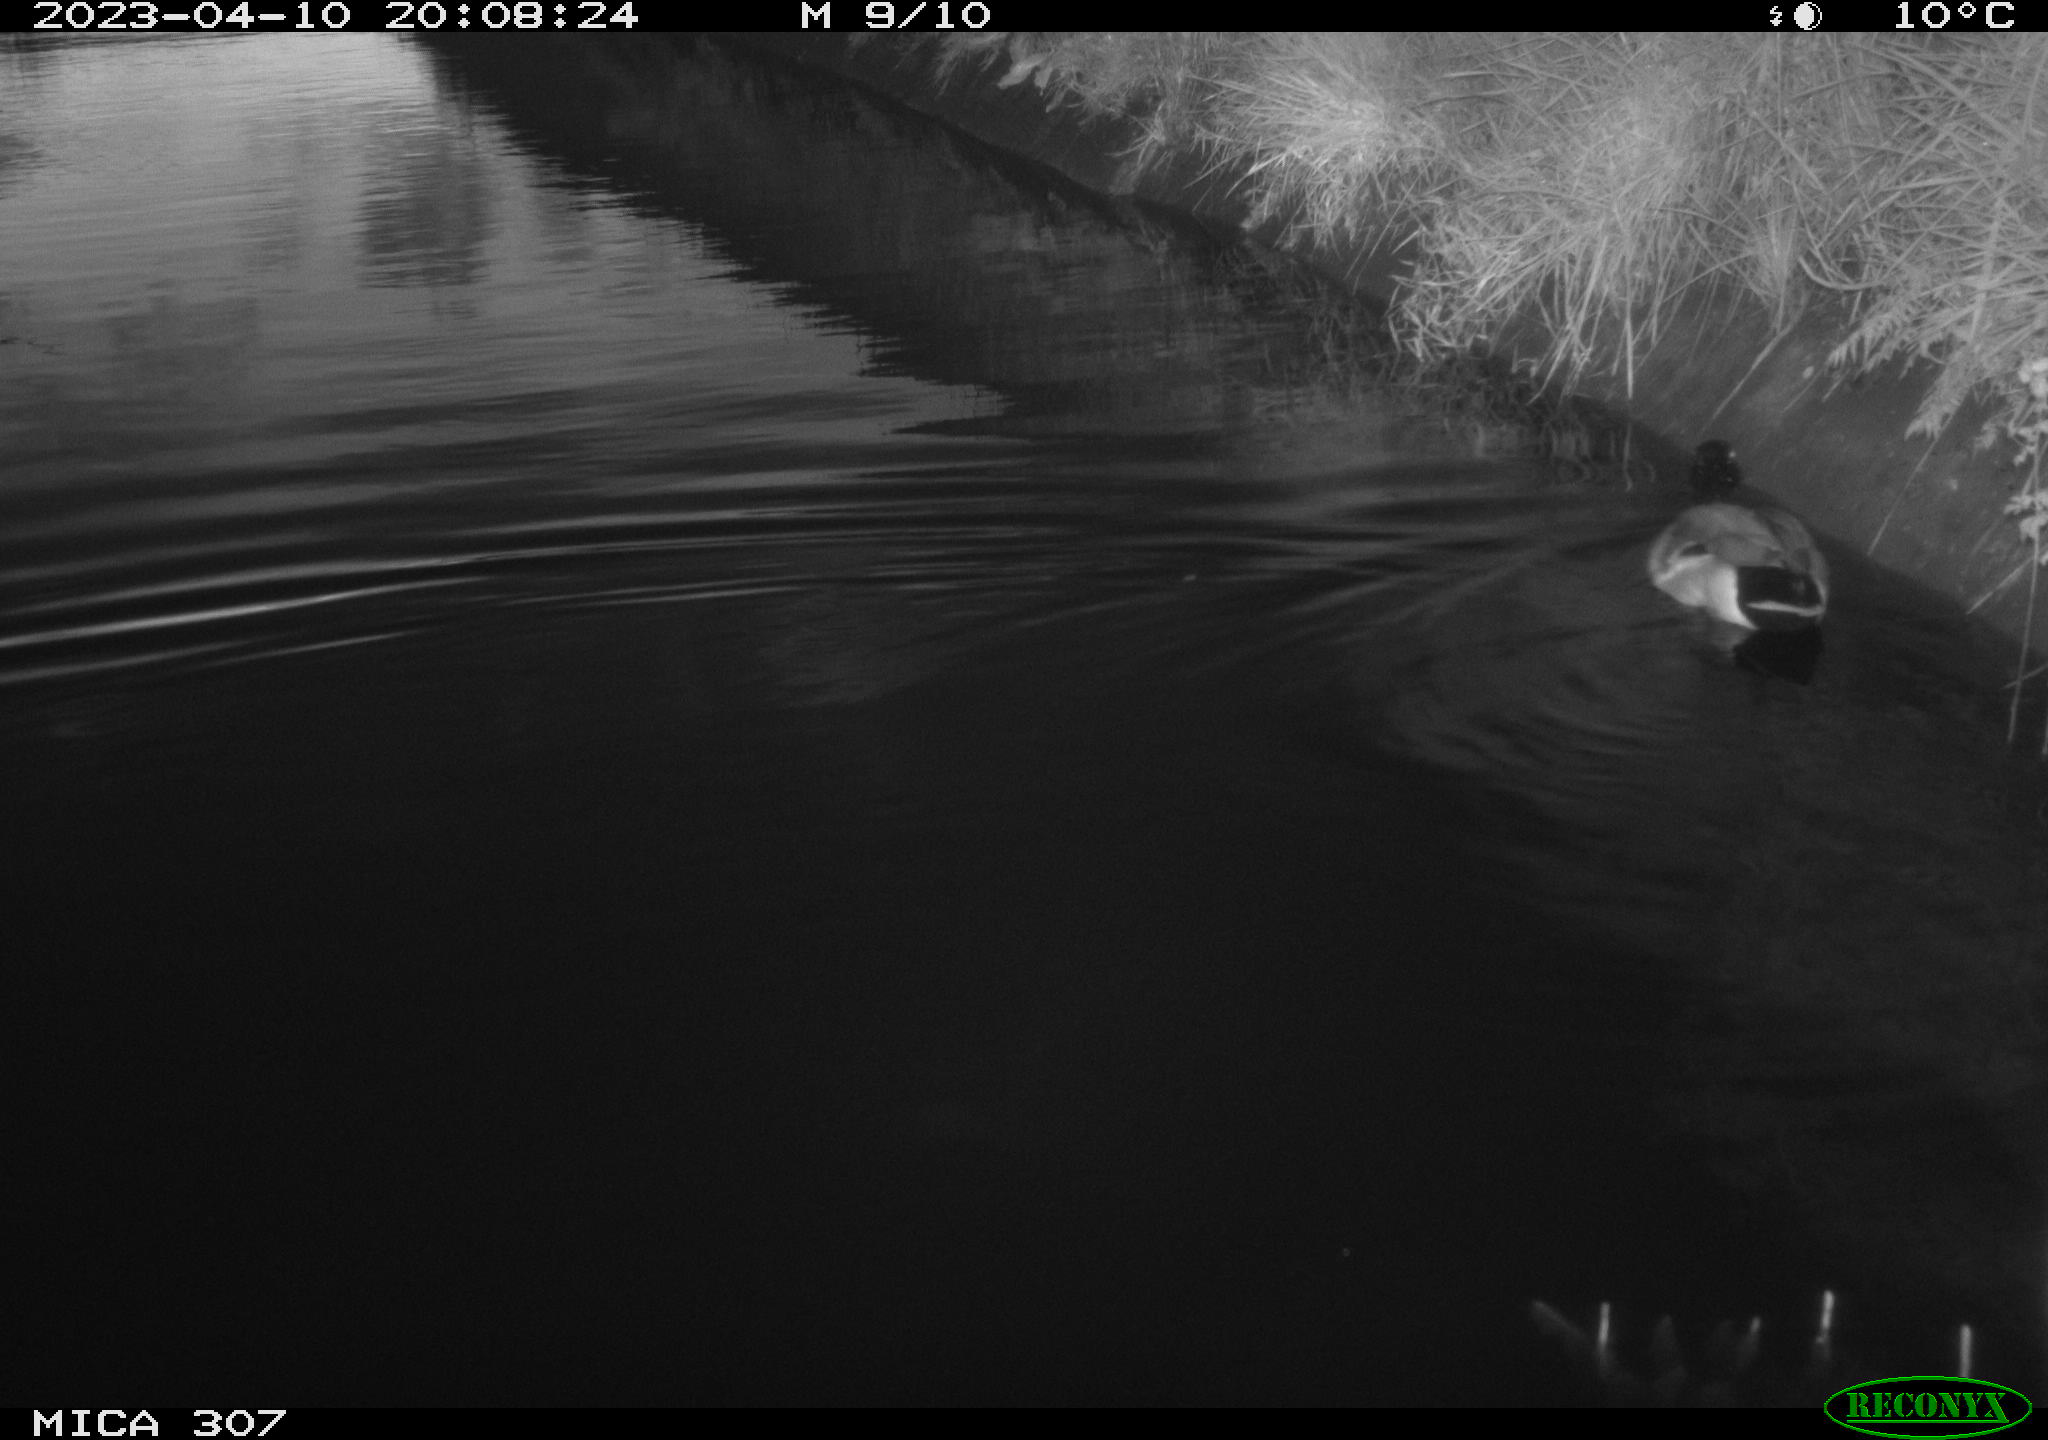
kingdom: Animalia
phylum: Chordata
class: Aves
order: Anseriformes
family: Anatidae
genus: Anas
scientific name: Anas
